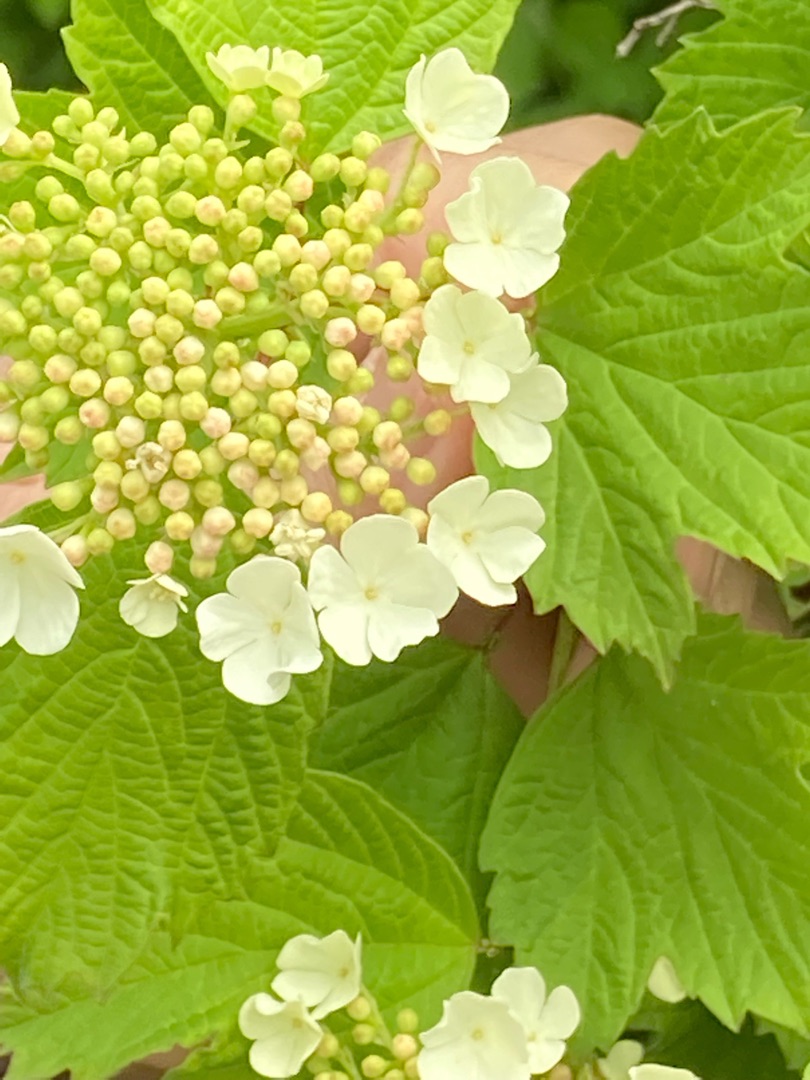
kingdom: Plantae
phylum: Tracheophyta
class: Magnoliopsida
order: Dipsacales
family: Viburnaceae
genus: Viburnum
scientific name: Viburnum opulus
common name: Kvalkved
